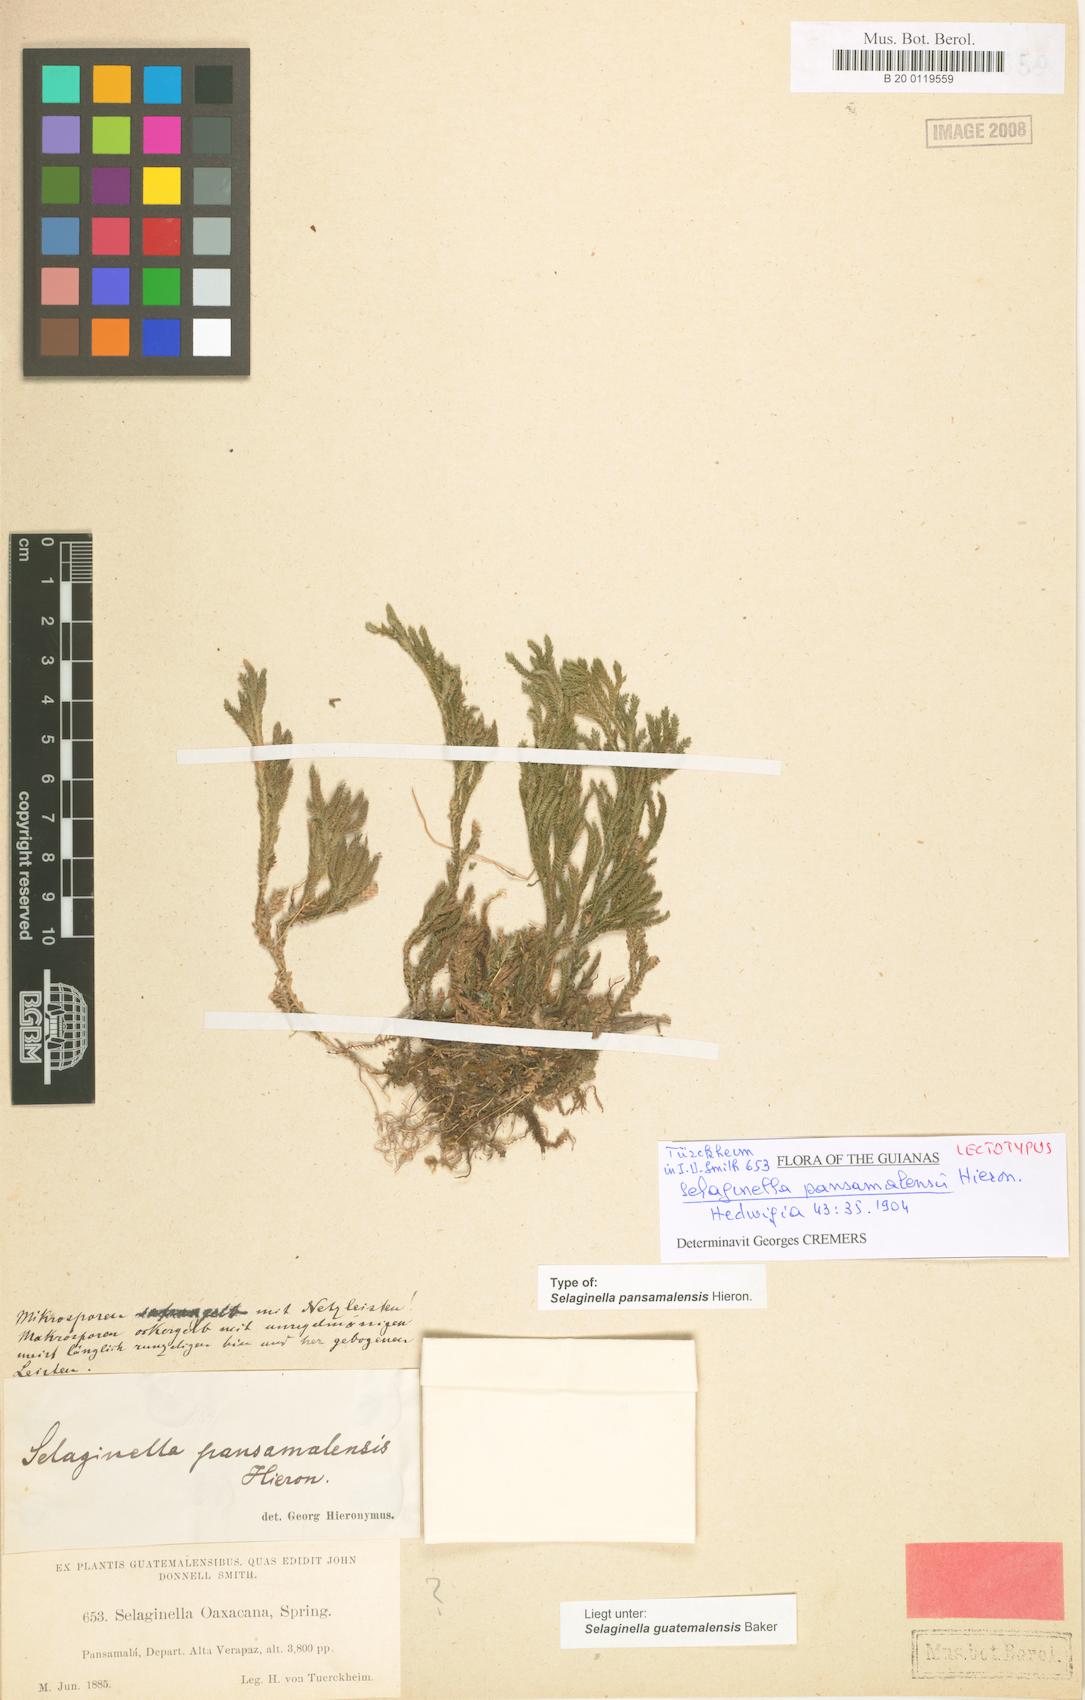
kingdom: Plantae
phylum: Tracheophyta
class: Lycopodiopsida
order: Selaginellales
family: Selaginellaceae
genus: Selaginella
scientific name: Selaginella guatemalensis
